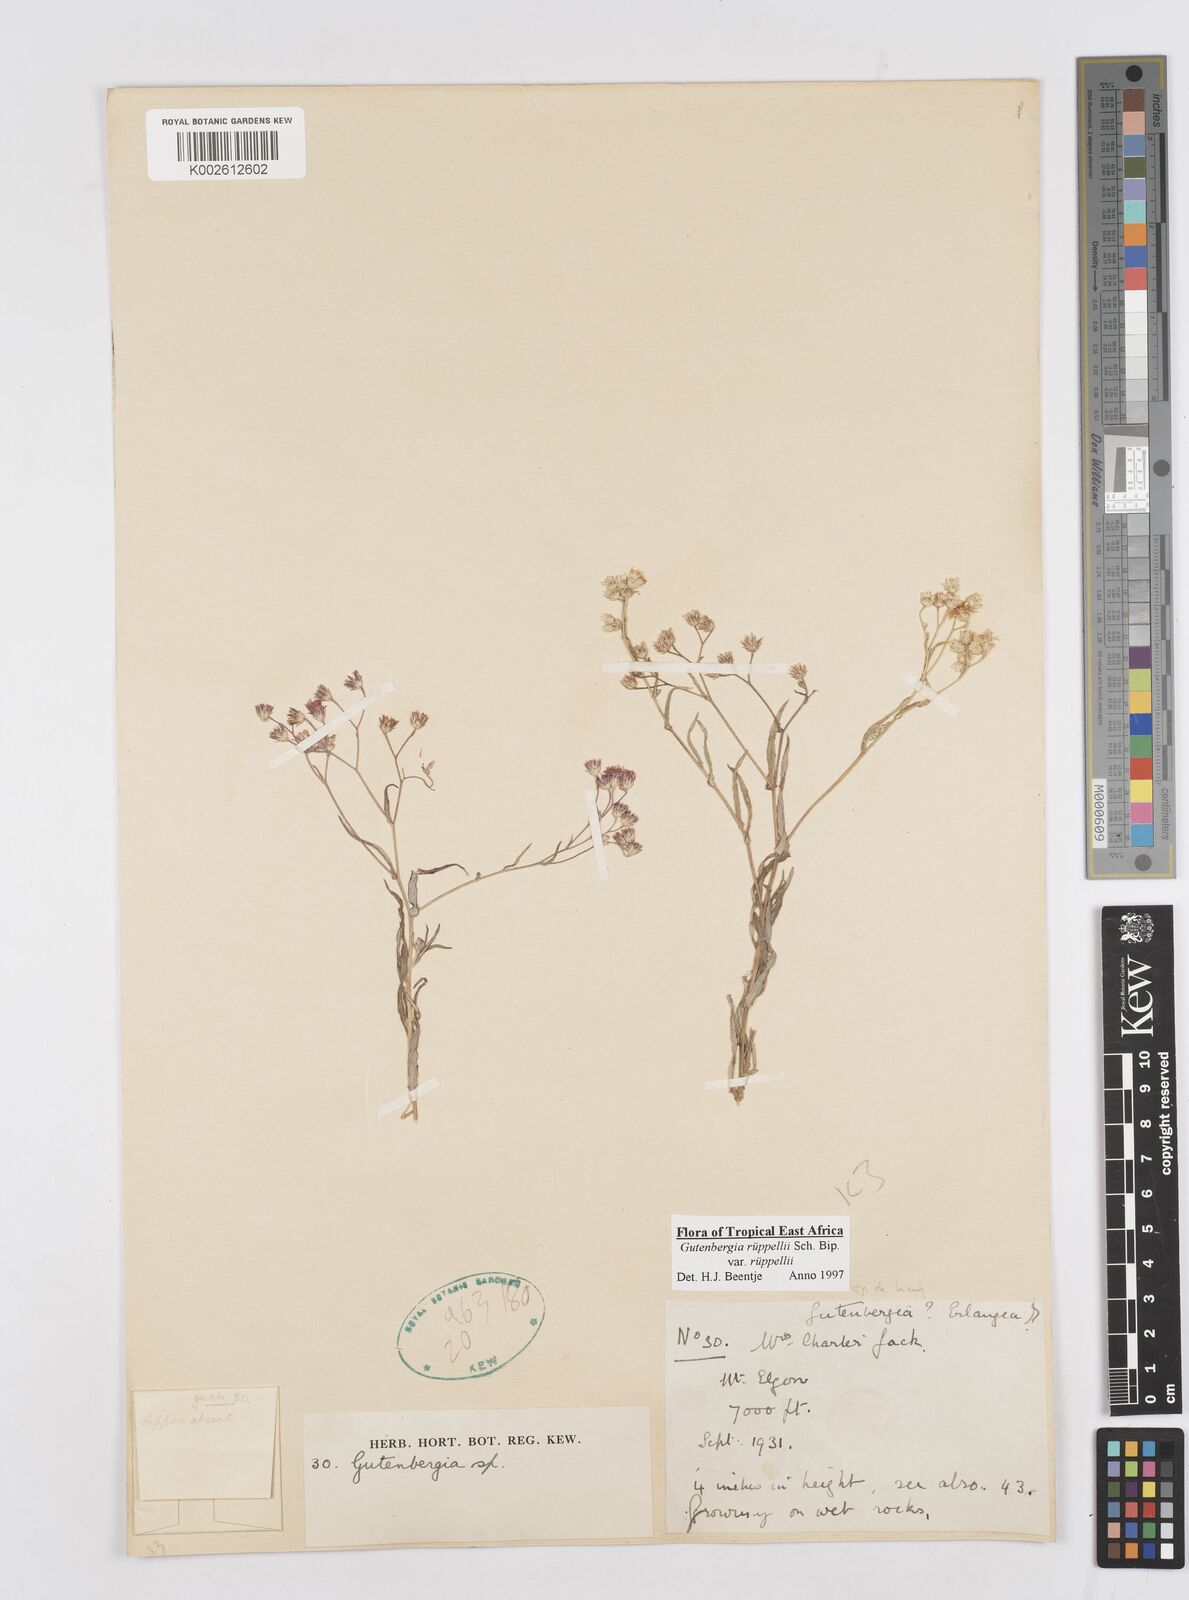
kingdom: Plantae
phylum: Tracheophyta
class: Magnoliopsida
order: Asterales
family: Asteraceae
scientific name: Asteraceae
